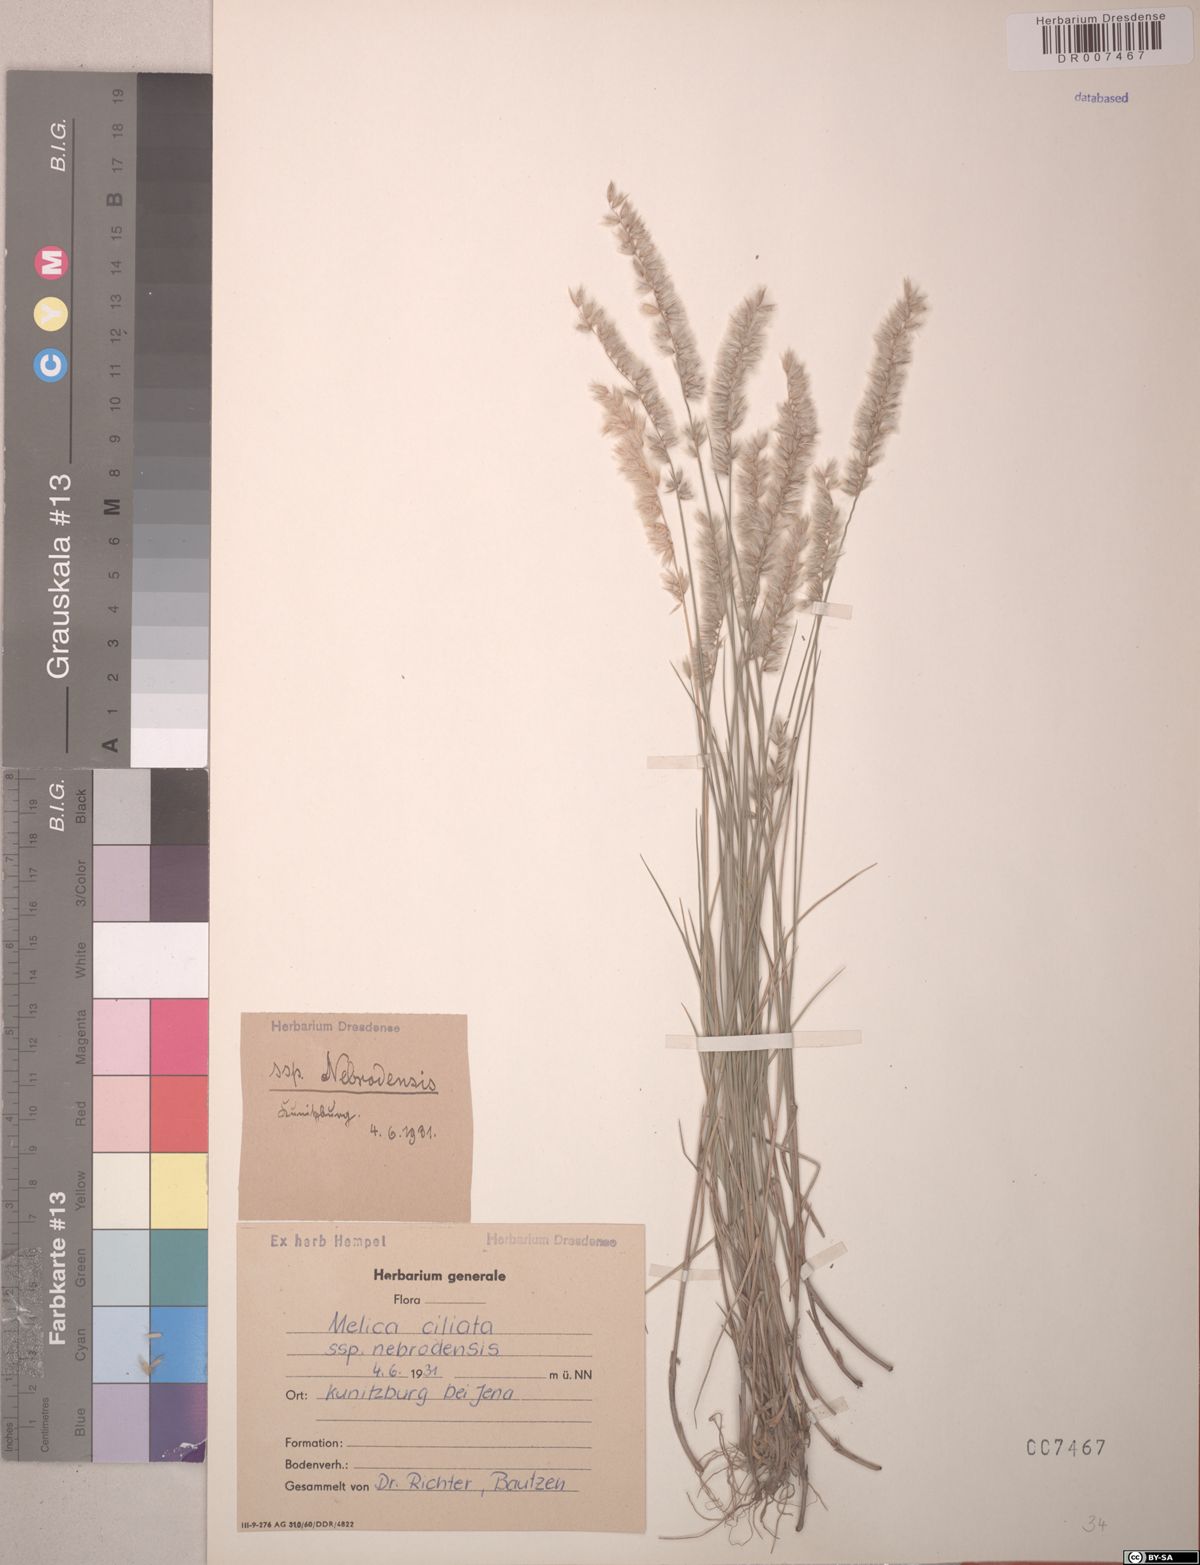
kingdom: Plantae
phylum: Tracheophyta
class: Liliopsida
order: Poales
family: Poaceae
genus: Melica
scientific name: Melica ciliata
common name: Hairy melicgrass
